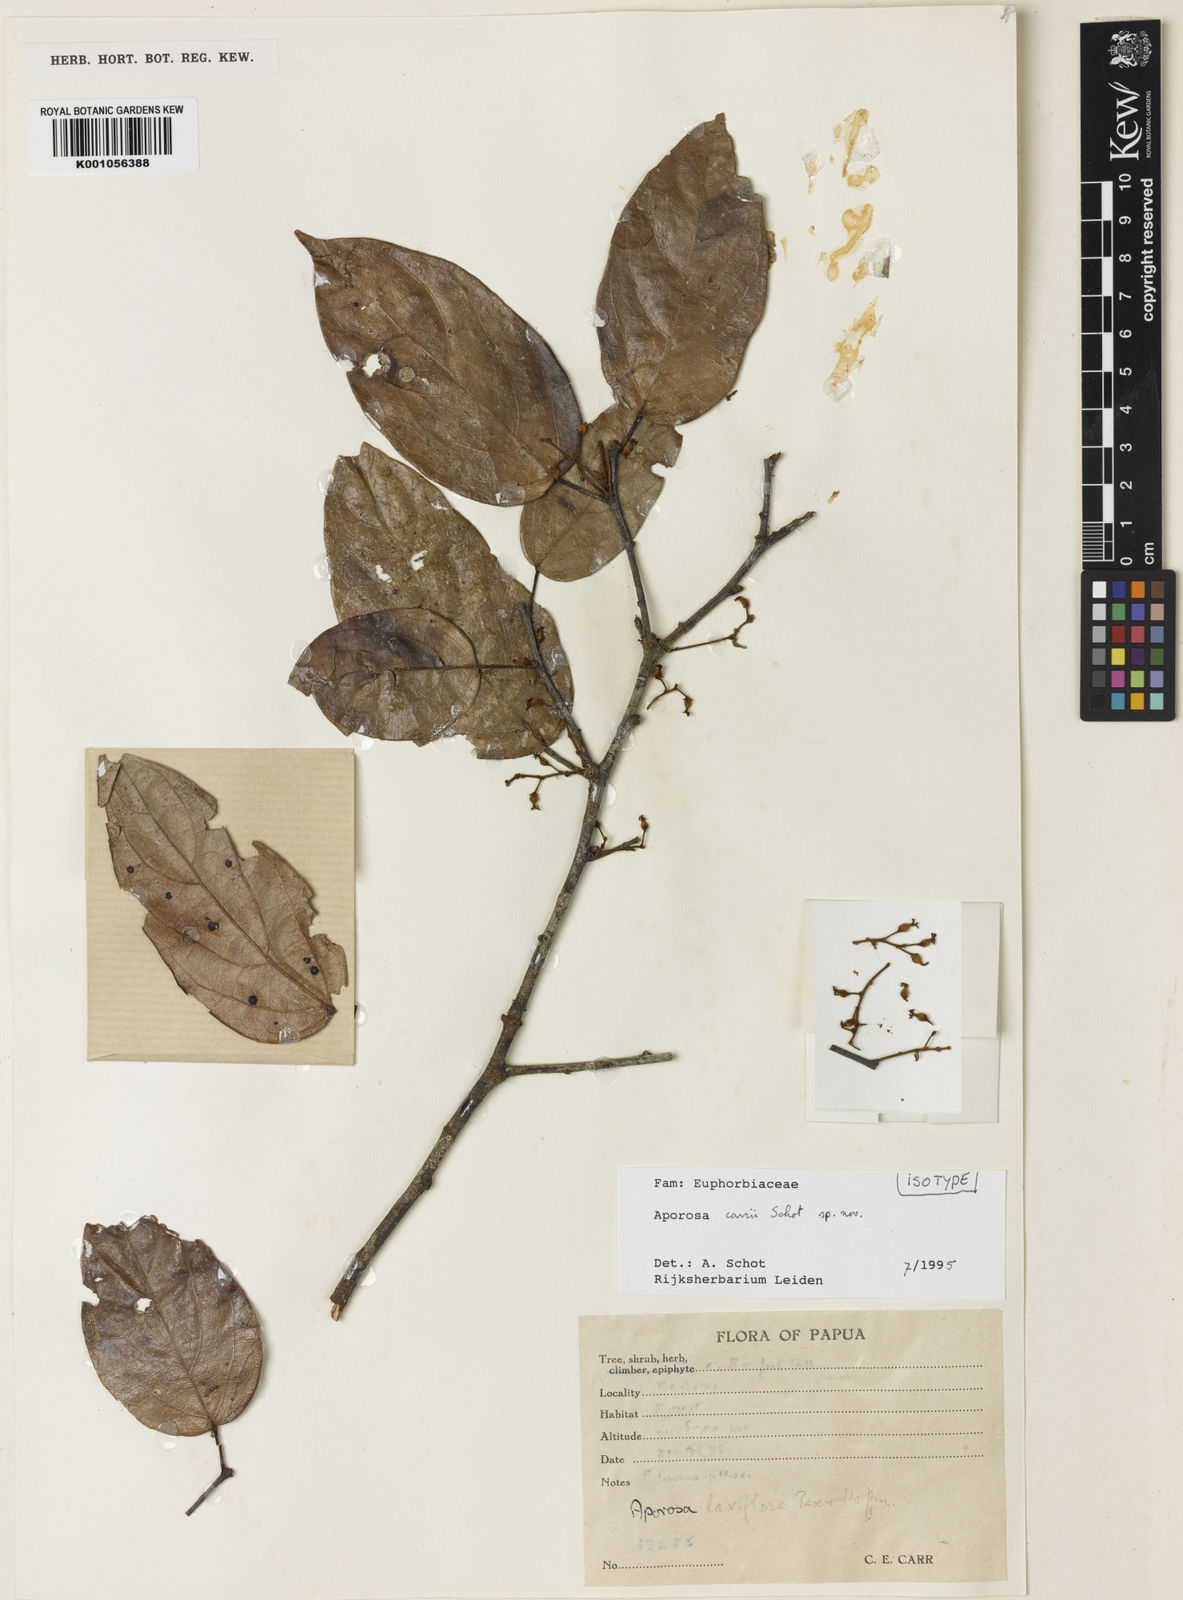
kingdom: Plantae
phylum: Tracheophyta
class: Magnoliopsida
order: Malpighiales
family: Phyllanthaceae
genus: Aporosa
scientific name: Aporosa carrii
